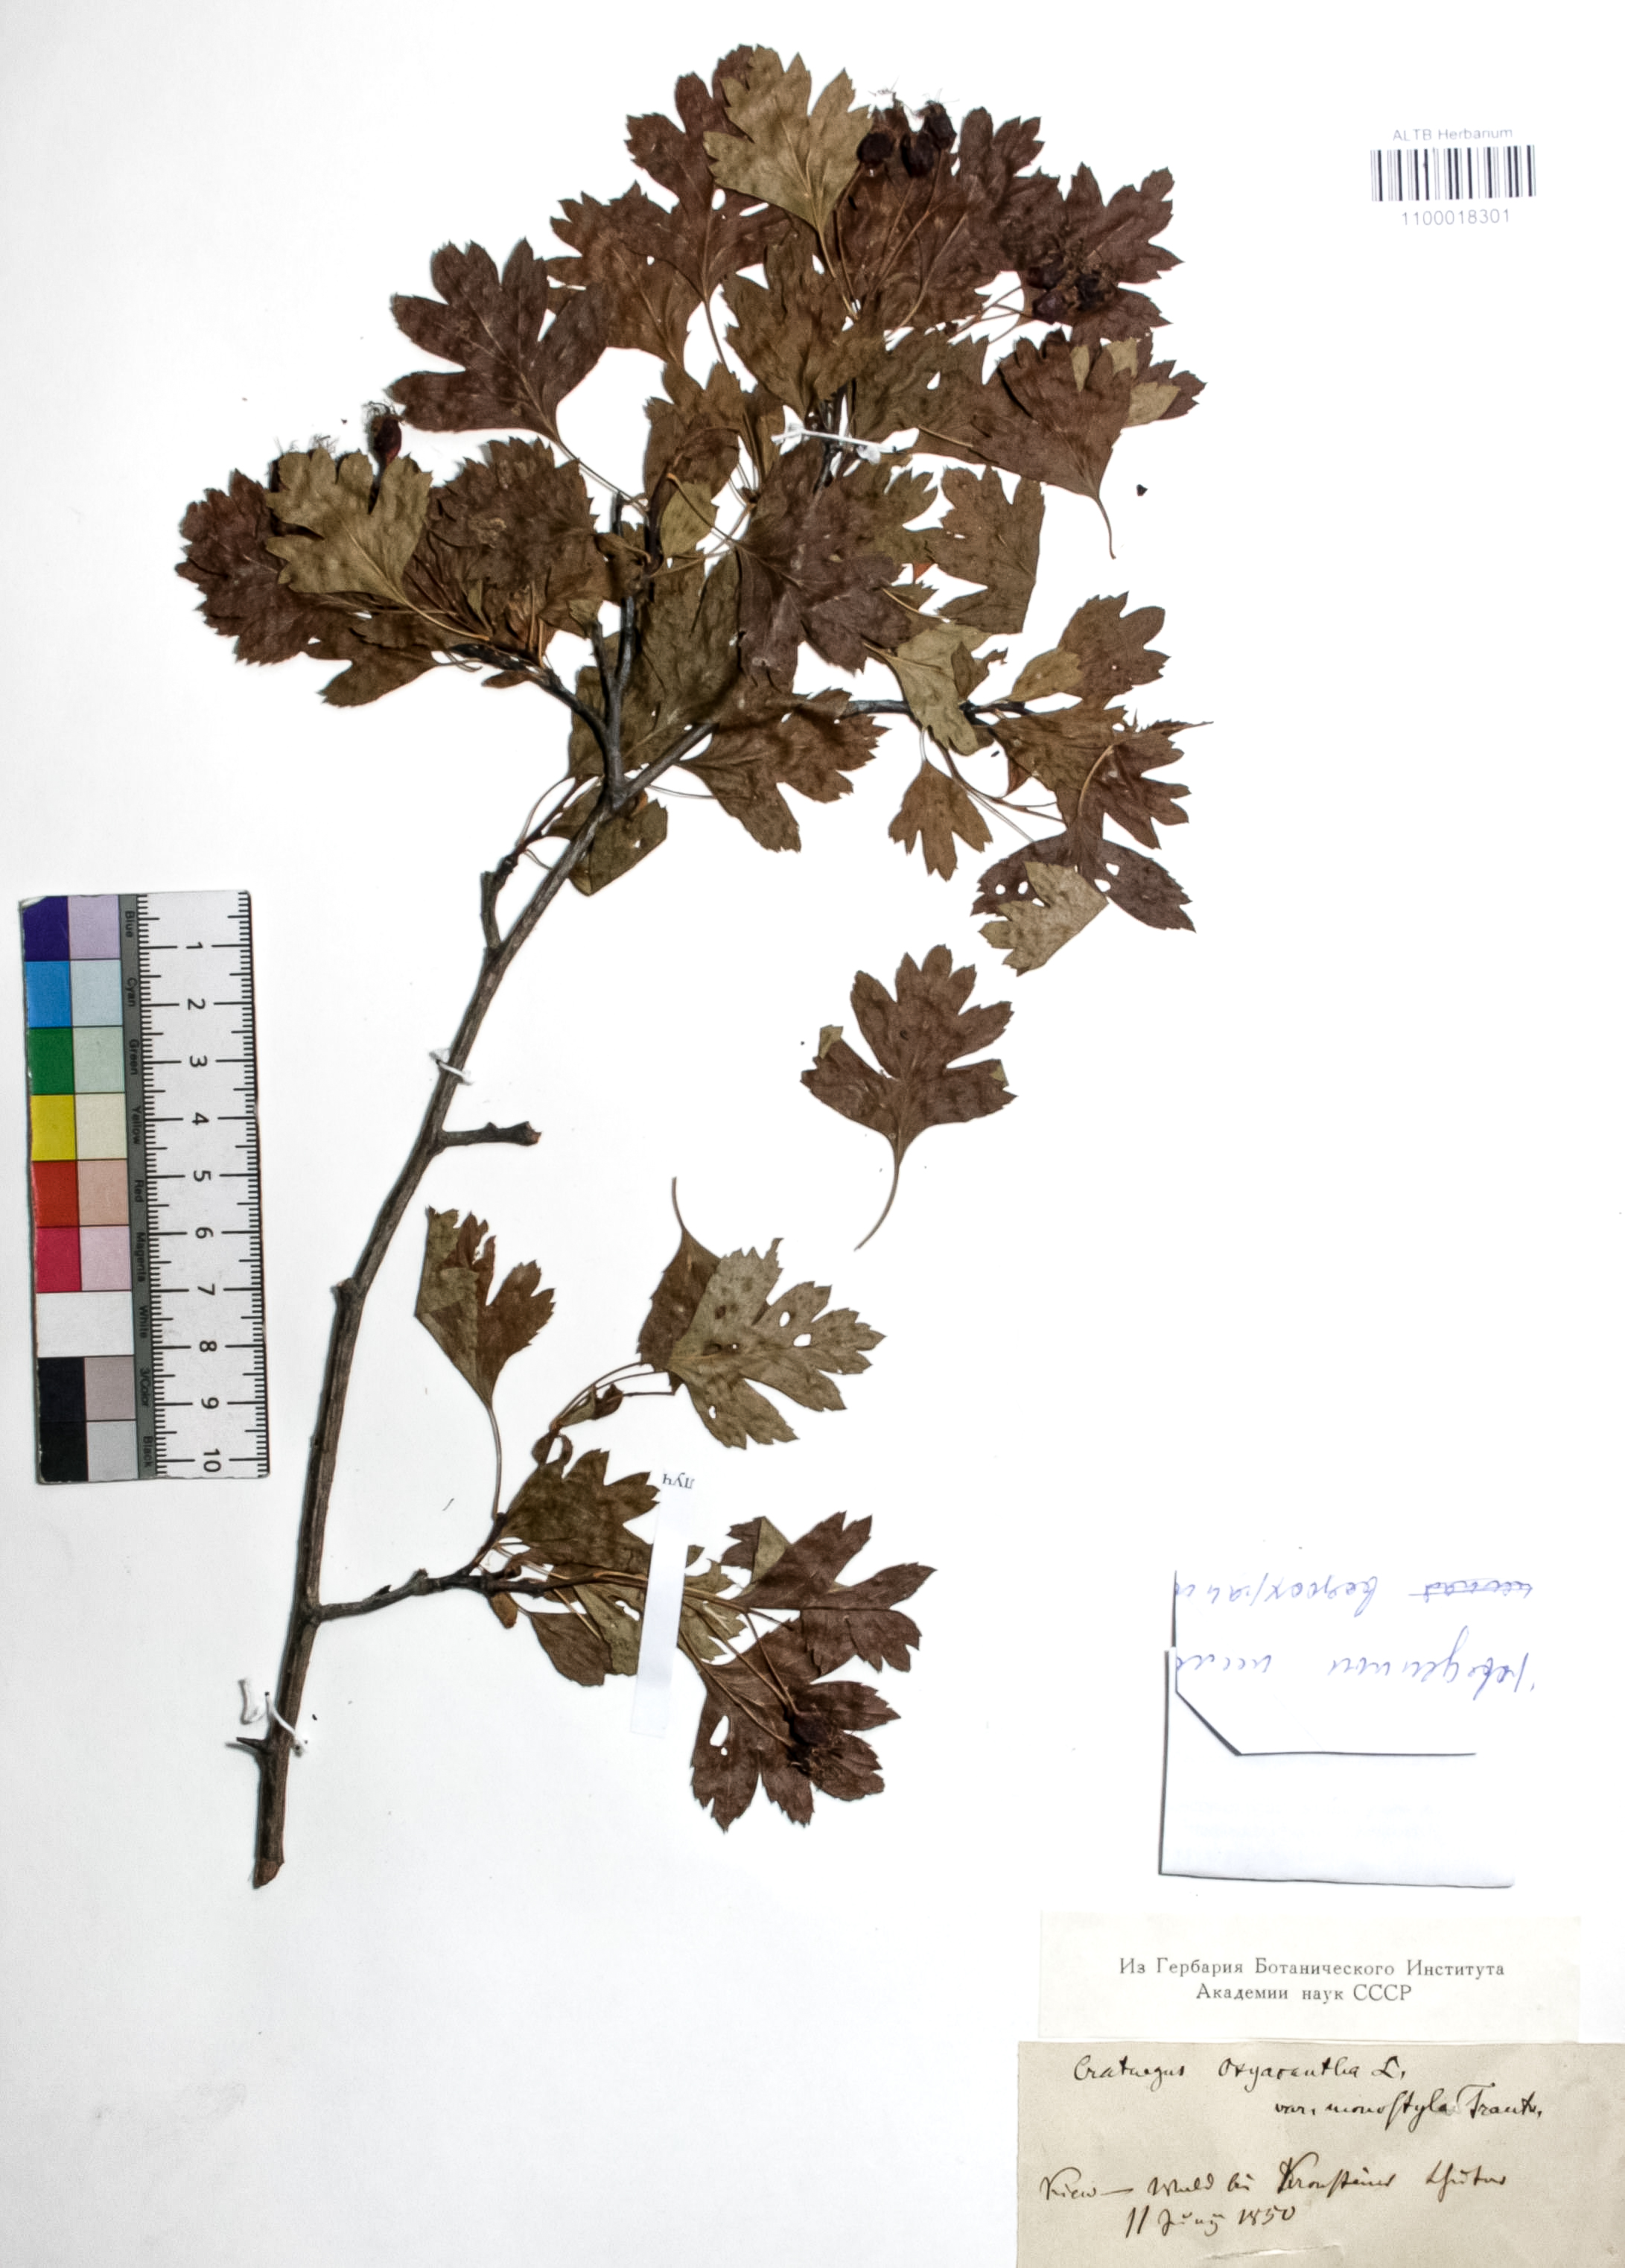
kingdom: Plantae
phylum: Tracheophyta
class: Magnoliopsida
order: Rosales
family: Rosaceae
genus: Crataegus
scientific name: Crataegus monogyna
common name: Hawthorn
